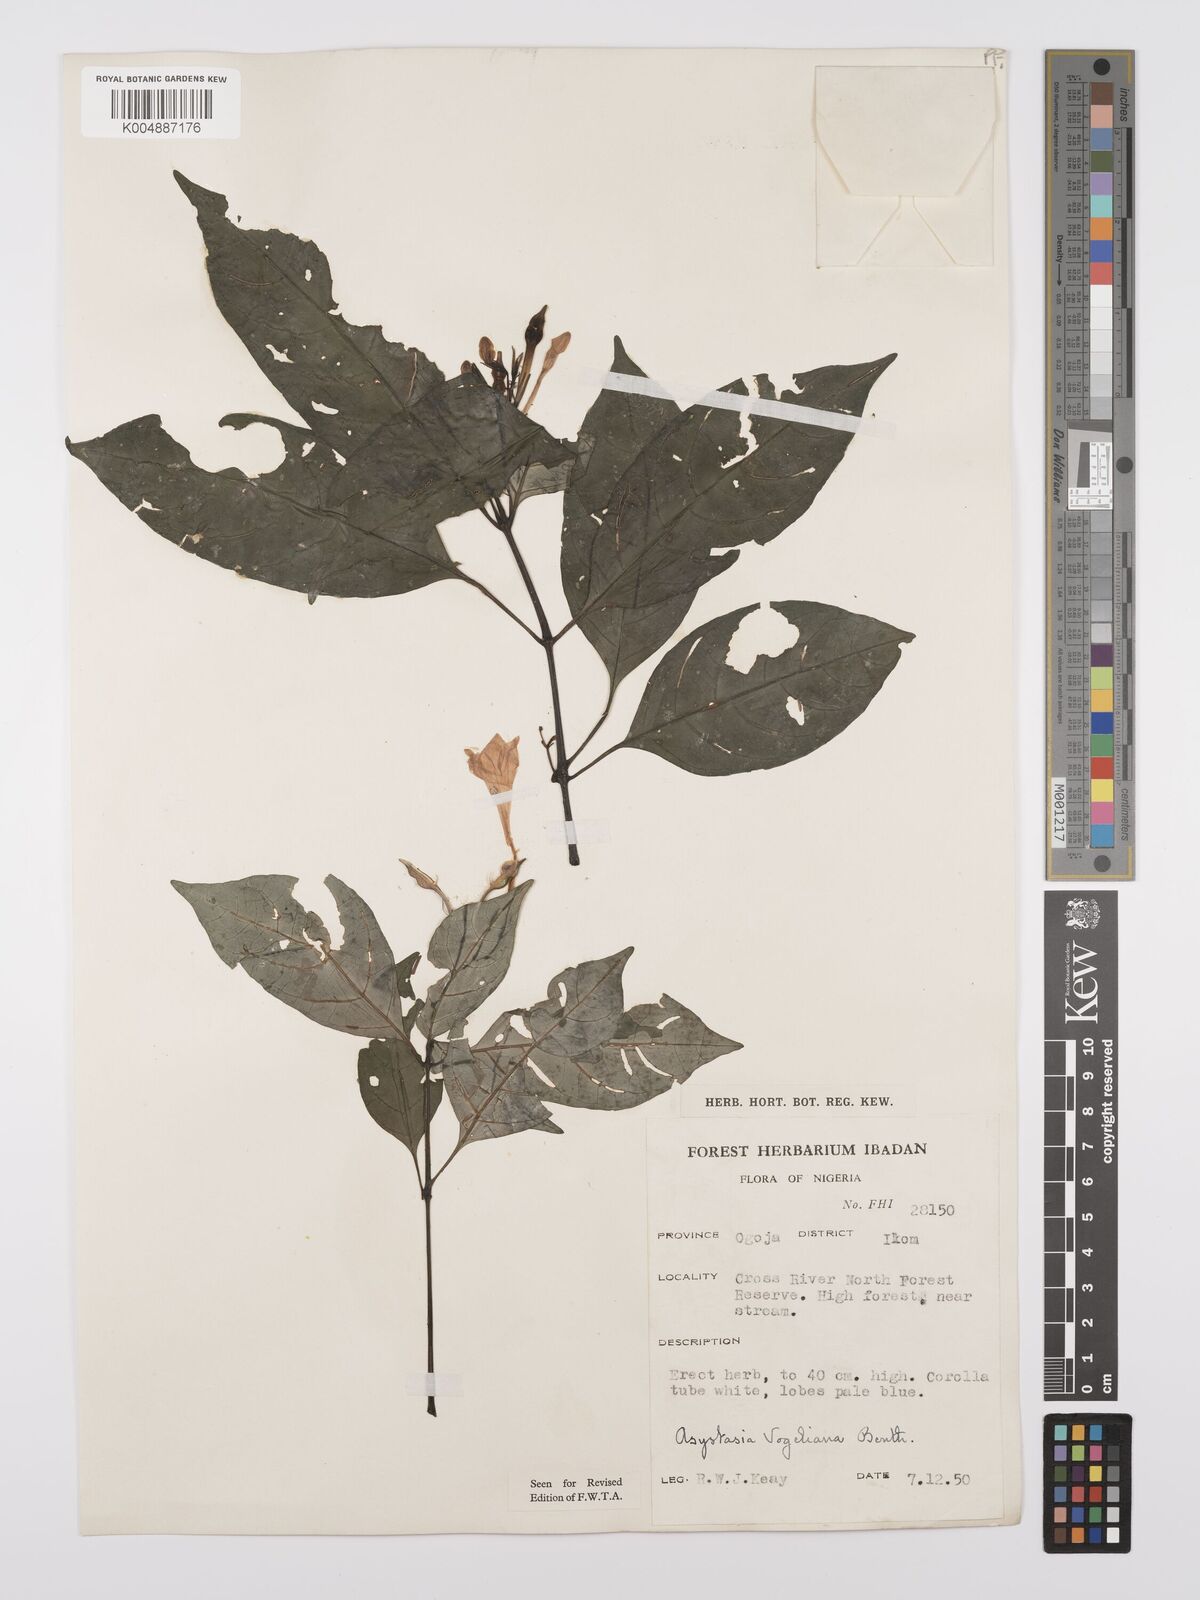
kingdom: Plantae
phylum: Tracheophyta
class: Magnoliopsida
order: Lamiales
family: Acanthaceae
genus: Asystasia
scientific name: Asystasia vogeliana
